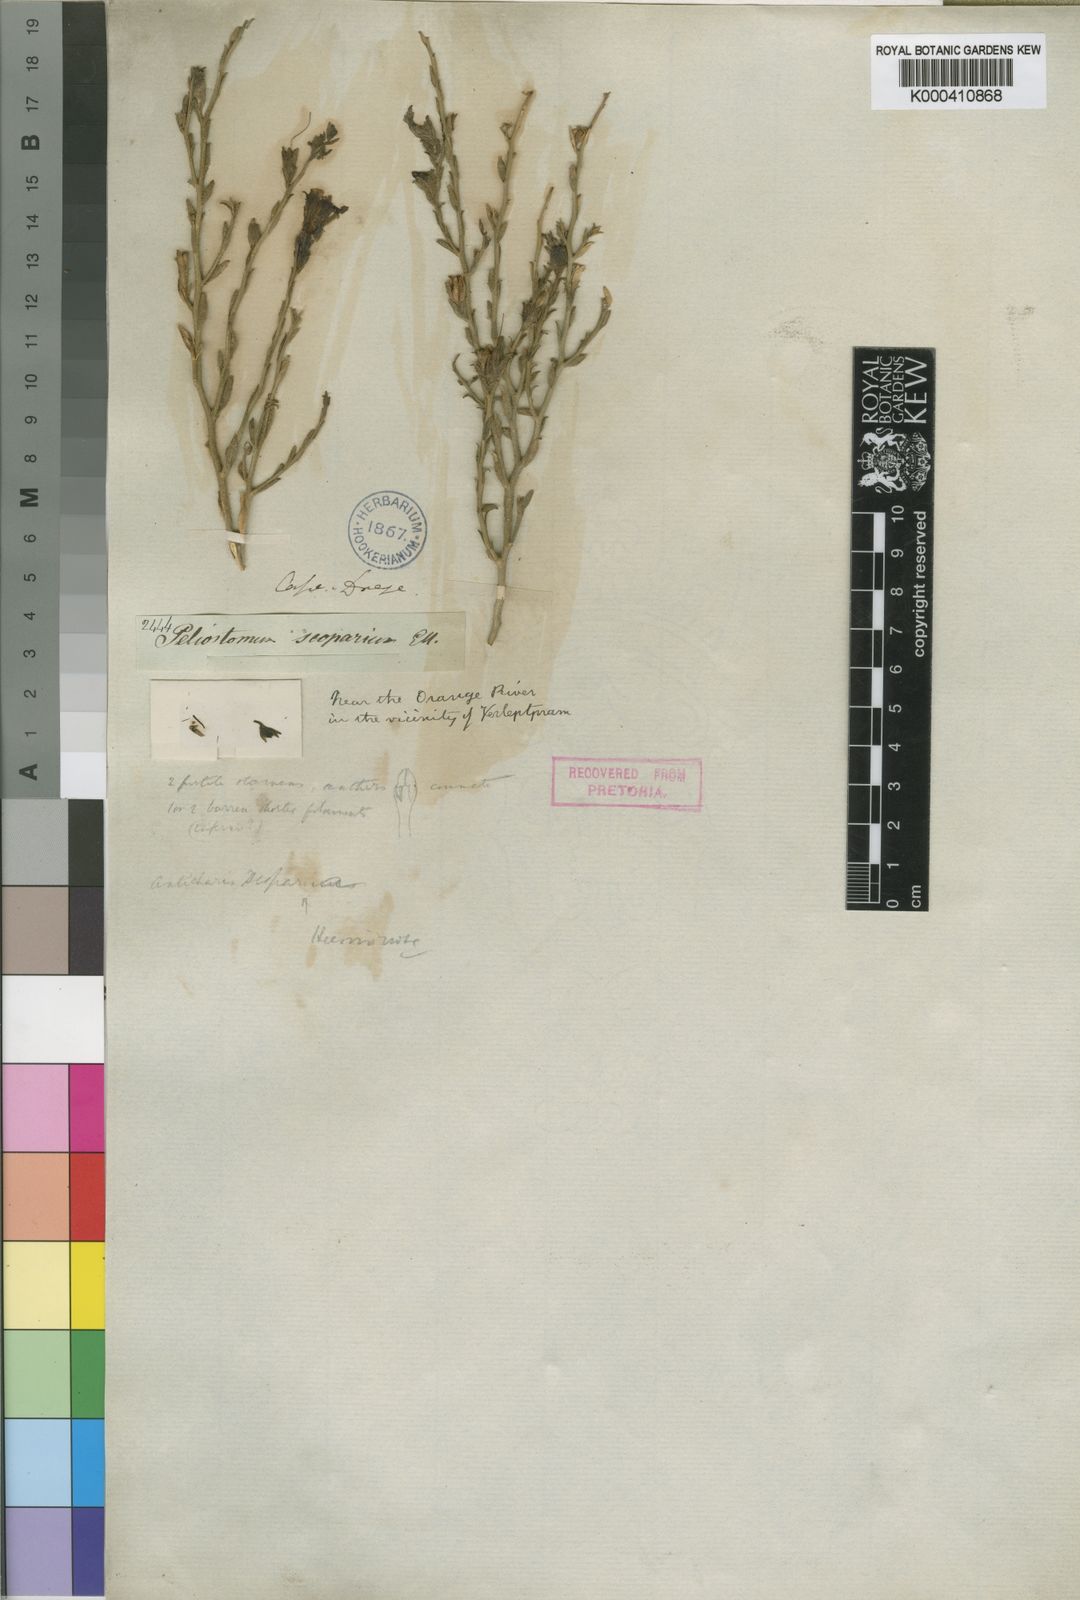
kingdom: Plantae
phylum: Tracheophyta
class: Magnoliopsida
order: Lamiales
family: Scrophulariaceae
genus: Anticharis
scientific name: Anticharis
